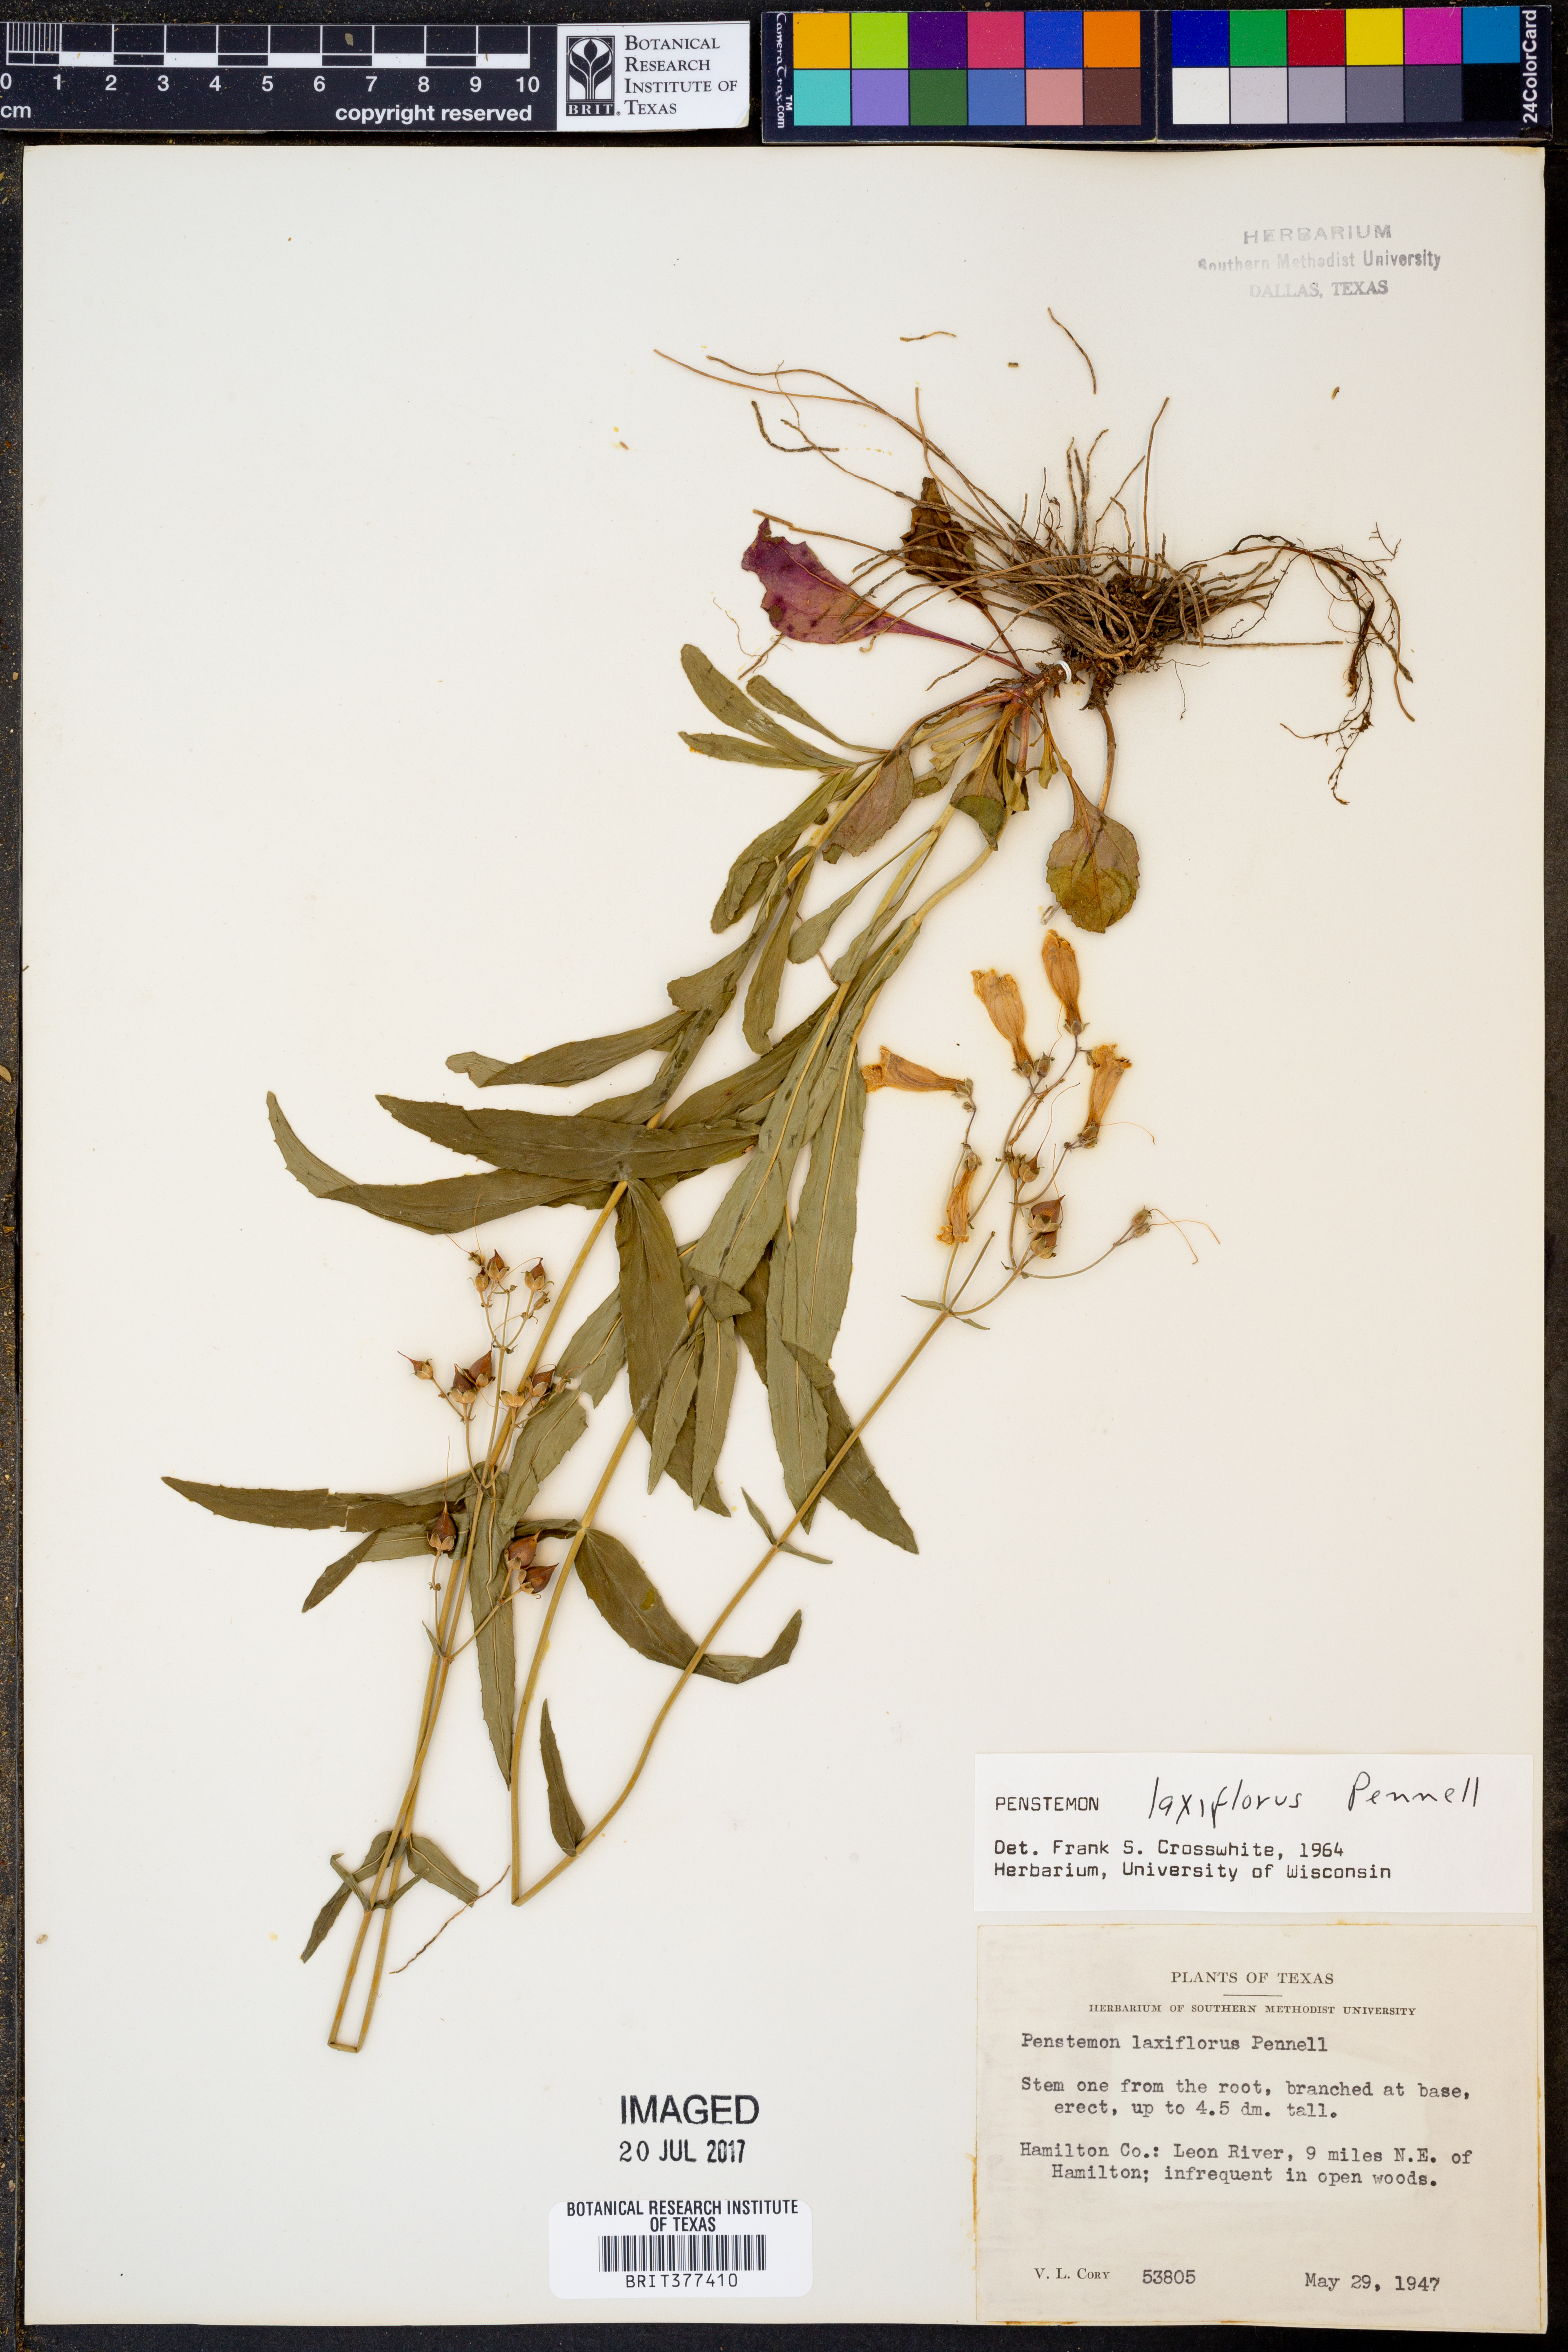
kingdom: Plantae
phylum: Tracheophyta
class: Magnoliopsida
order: Lamiales
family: Plantaginaceae
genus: Penstemon
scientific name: Penstemon laxiflorus
